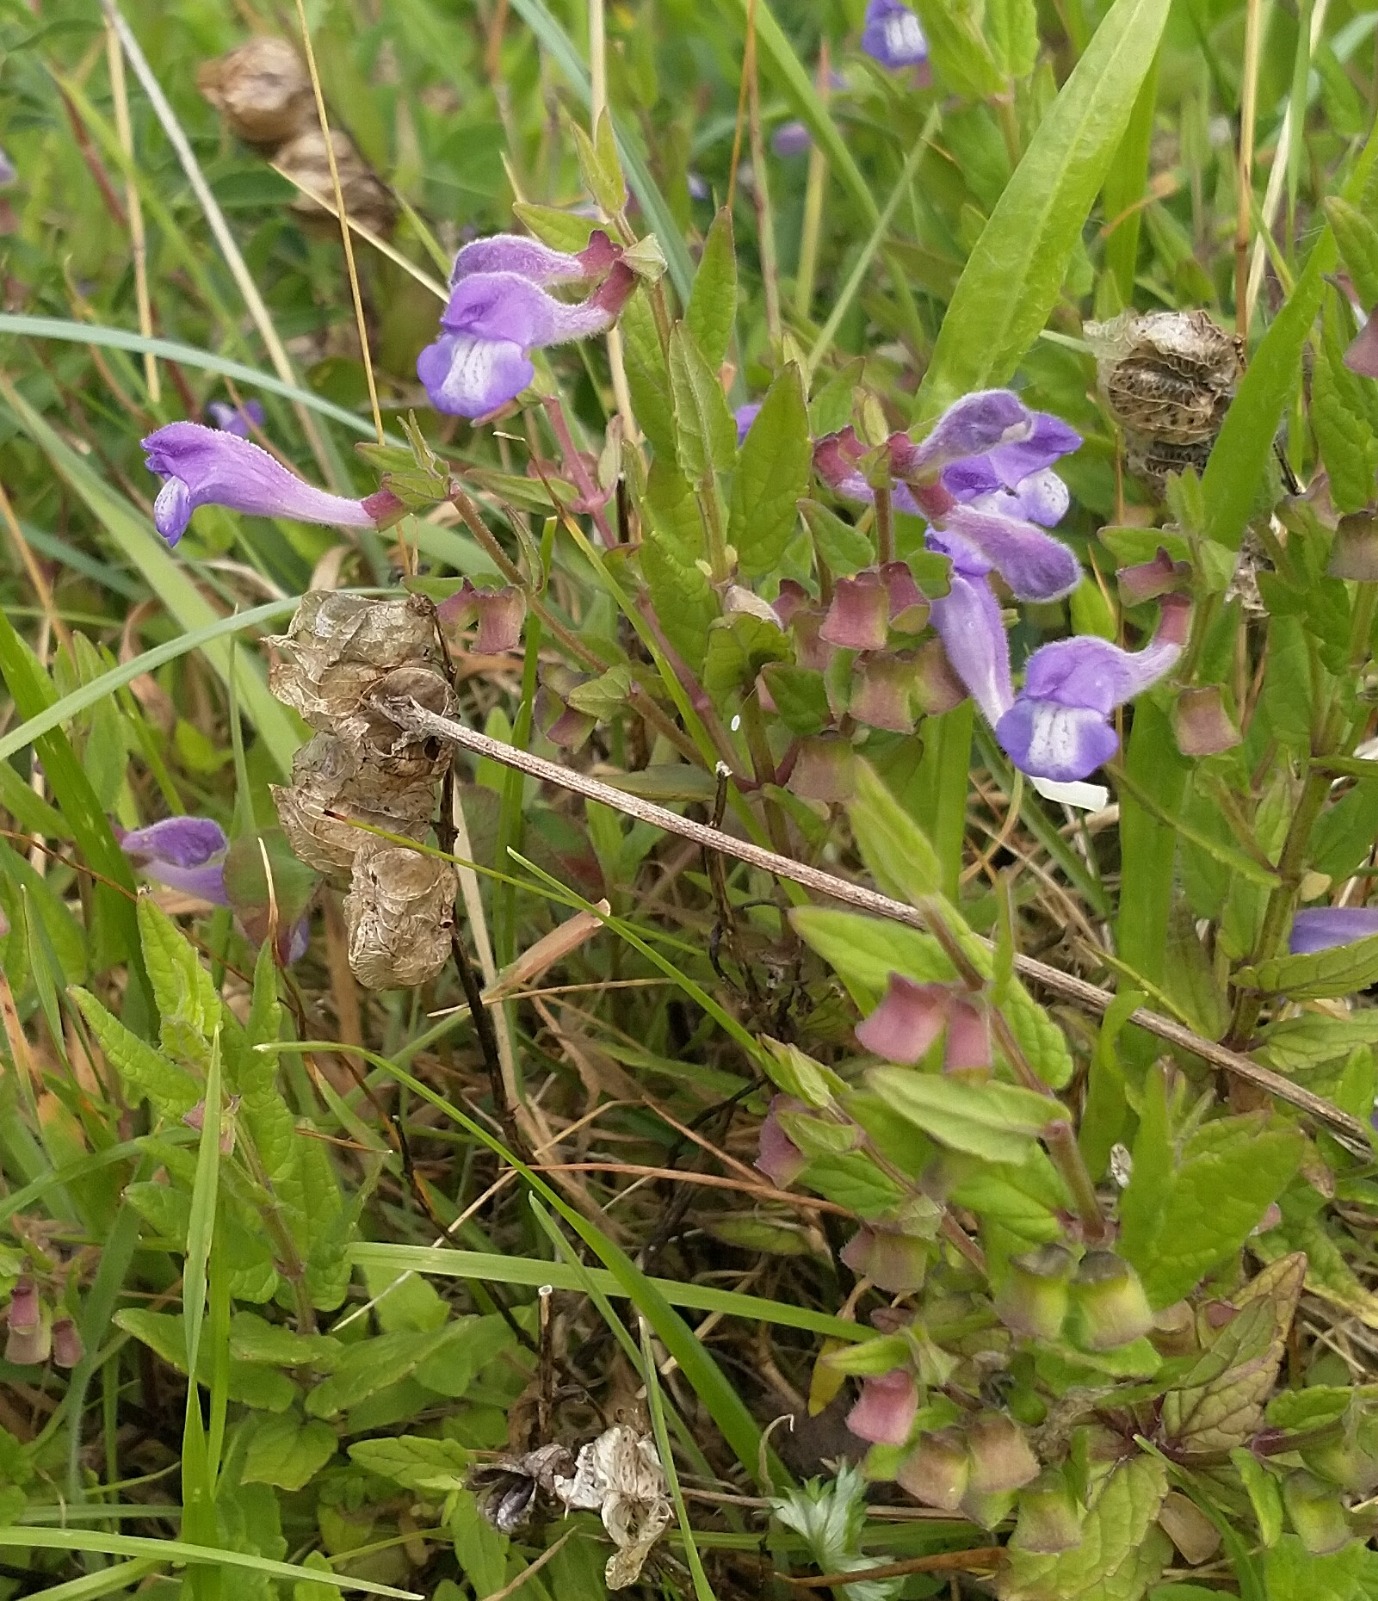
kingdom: Plantae
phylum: Tracheophyta
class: Magnoliopsida
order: Lamiales
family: Lamiaceae
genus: Scutellaria
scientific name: Scutellaria galericulata
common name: Almindelig skjolddrager
